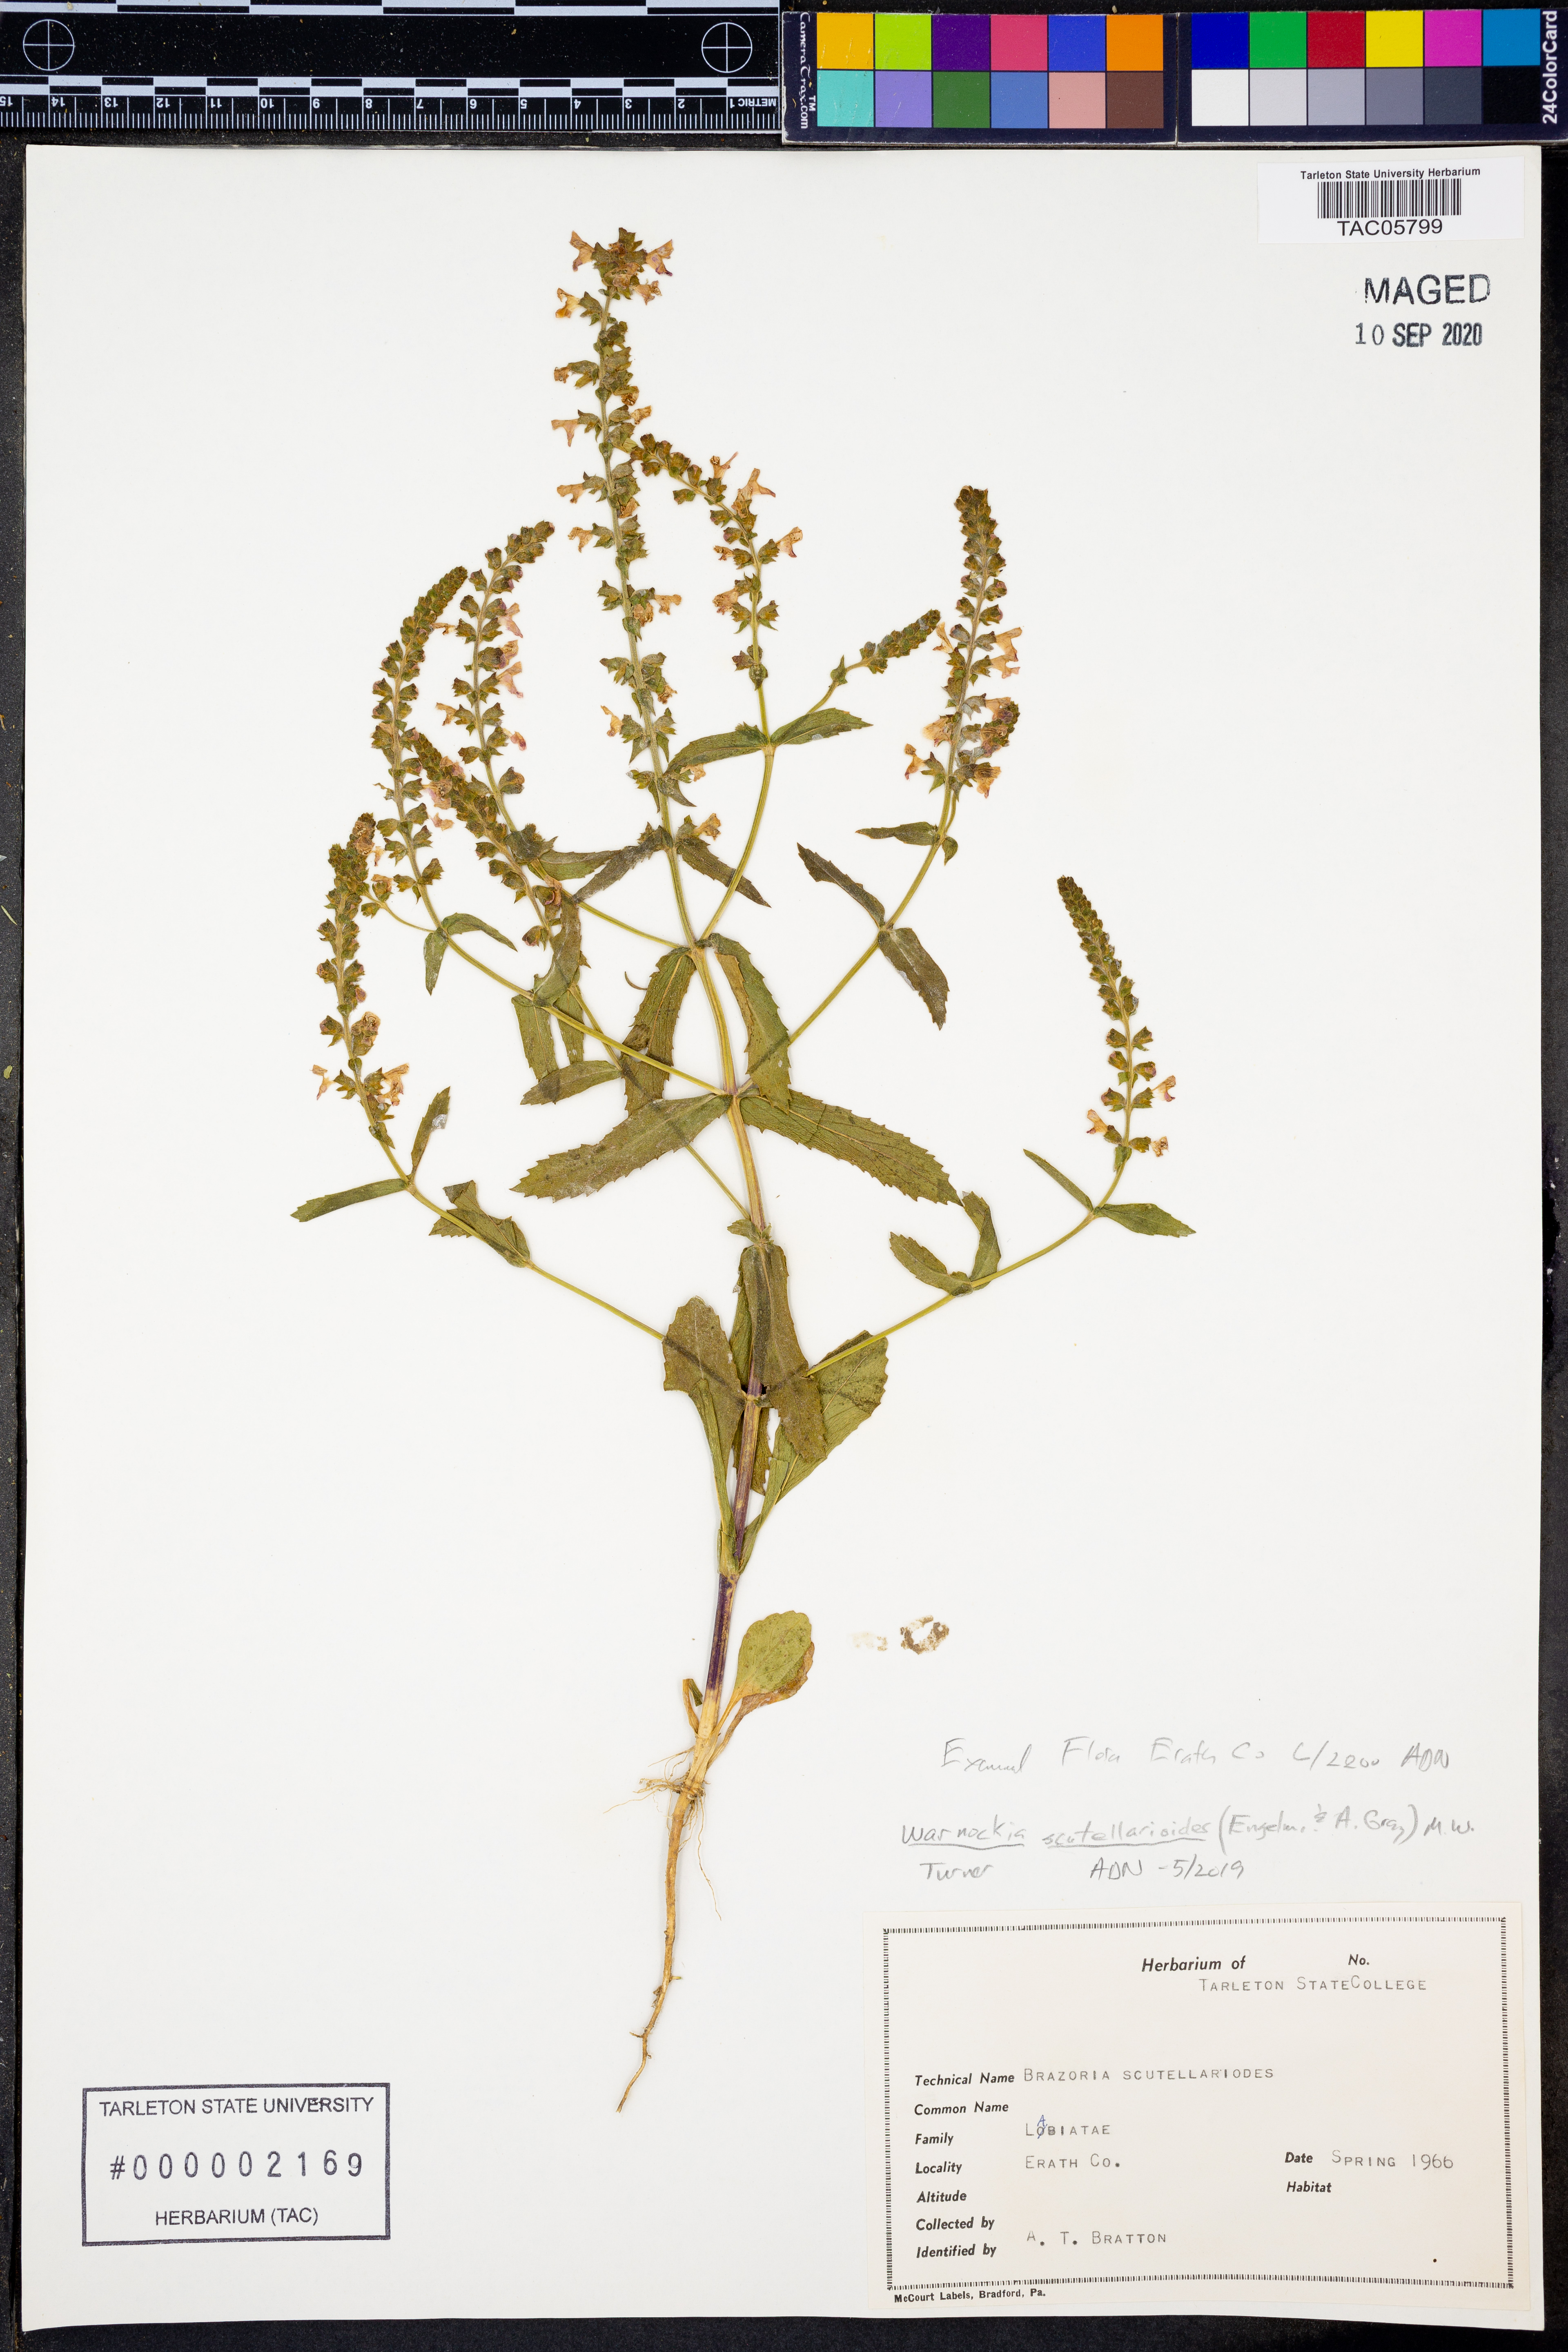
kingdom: Plantae
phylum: Tracheophyta
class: Magnoliopsida
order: Lamiales
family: Lamiaceae
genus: Warnockia
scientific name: Warnockia scutellarioides
